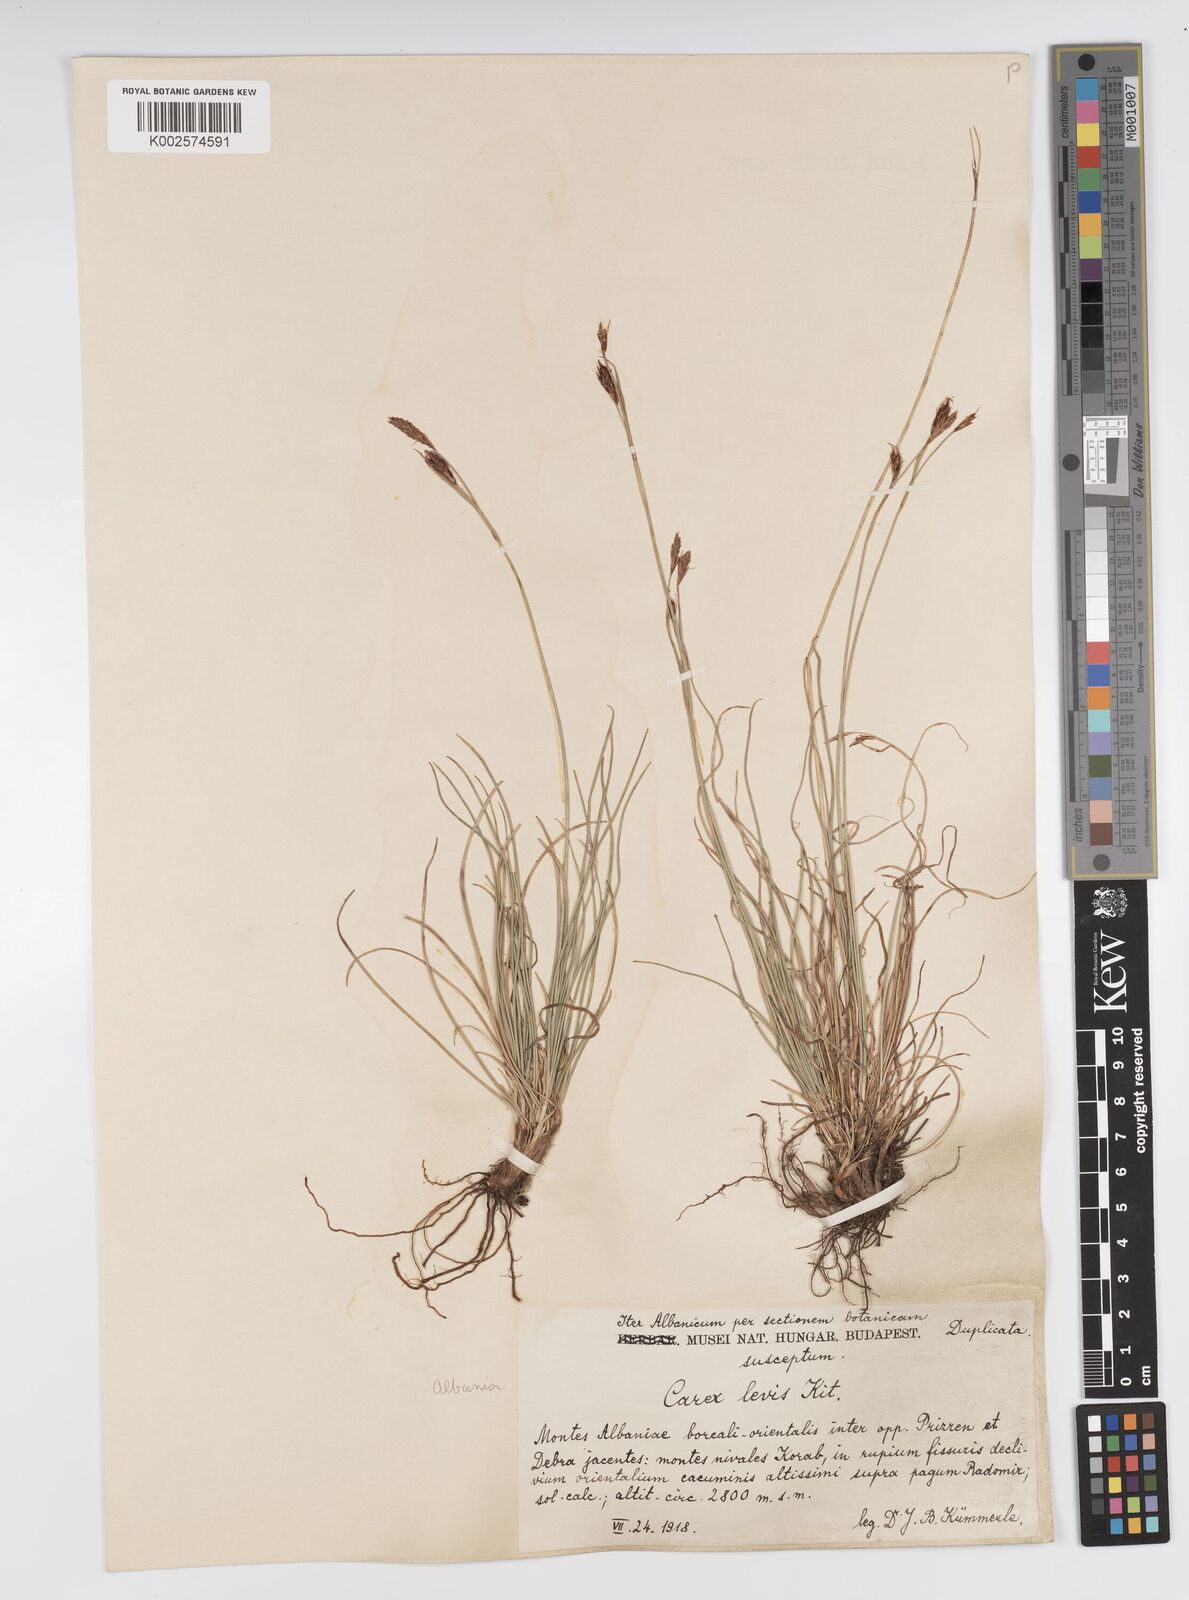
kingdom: Plantae
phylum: Tracheophyta
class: Liliopsida
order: Poales
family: Cyperaceae
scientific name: Cyperaceae
